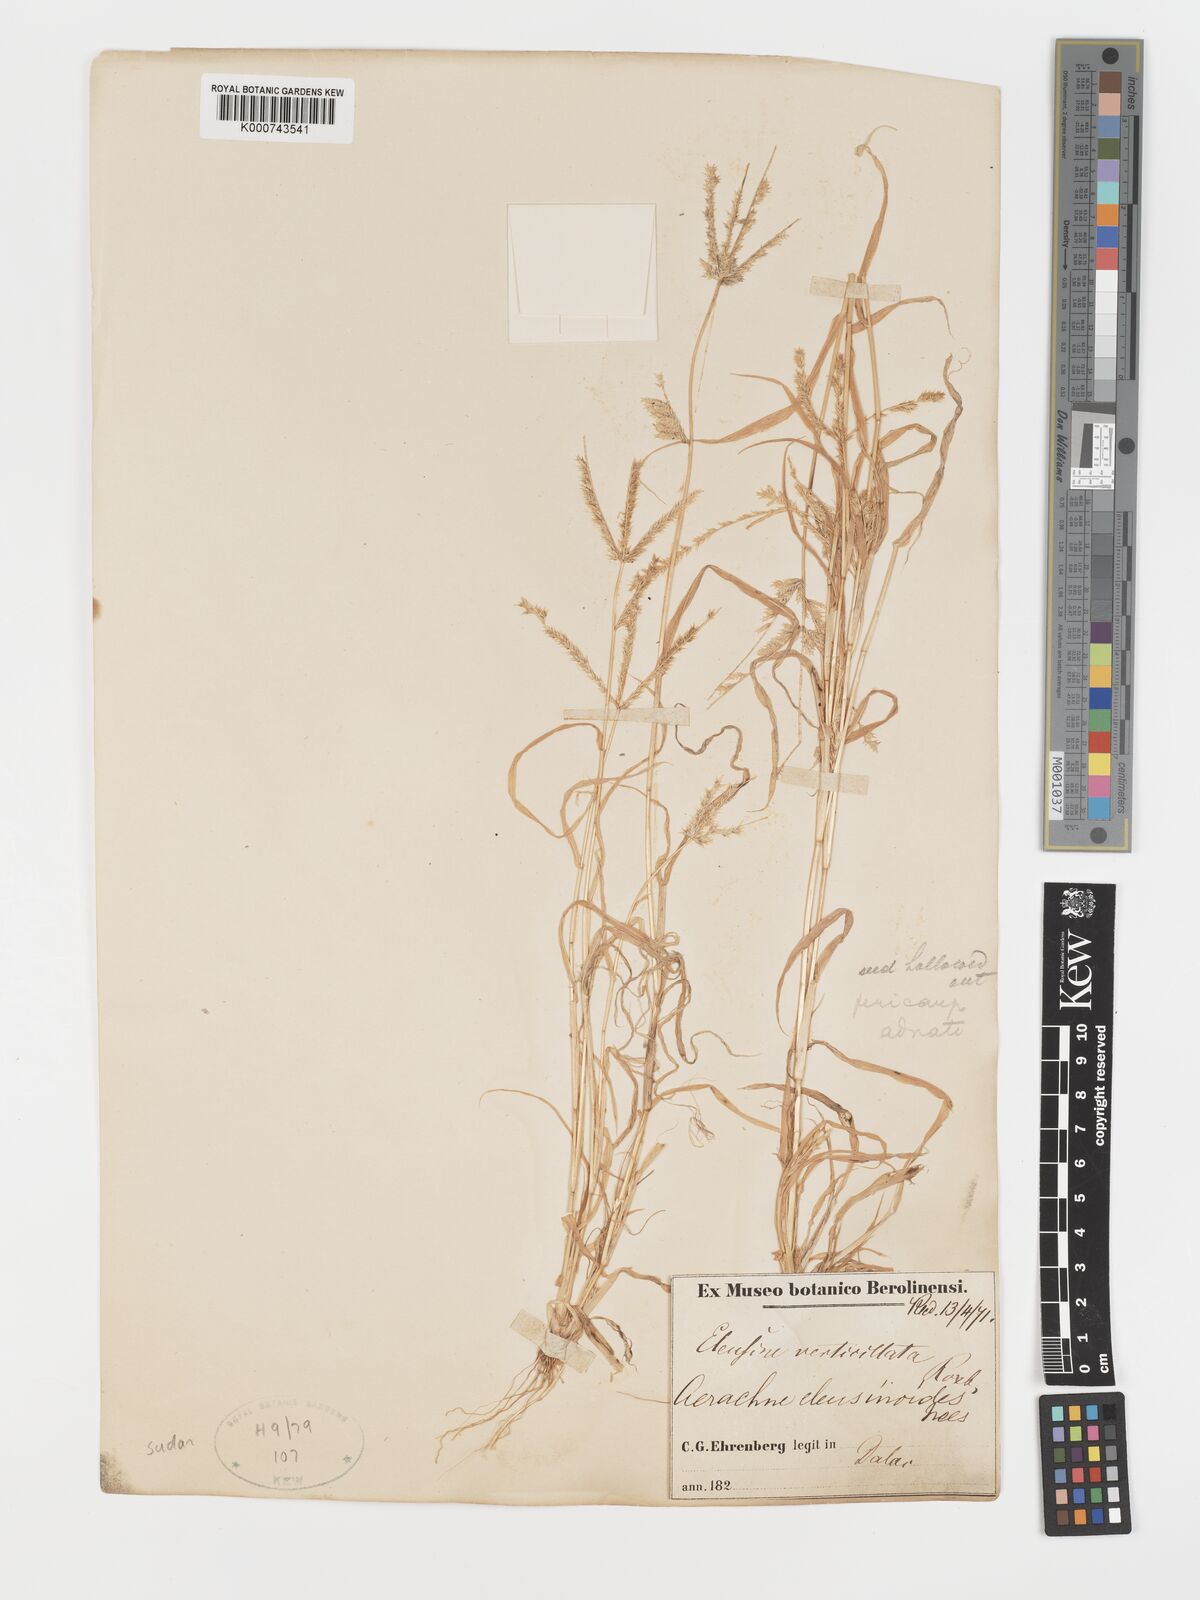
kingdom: Plantae
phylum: Tracheophyta
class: Liliopsida
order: Poales
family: Poaceae
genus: Acrachne
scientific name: Acrachne racemosa
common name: Goosegrass
